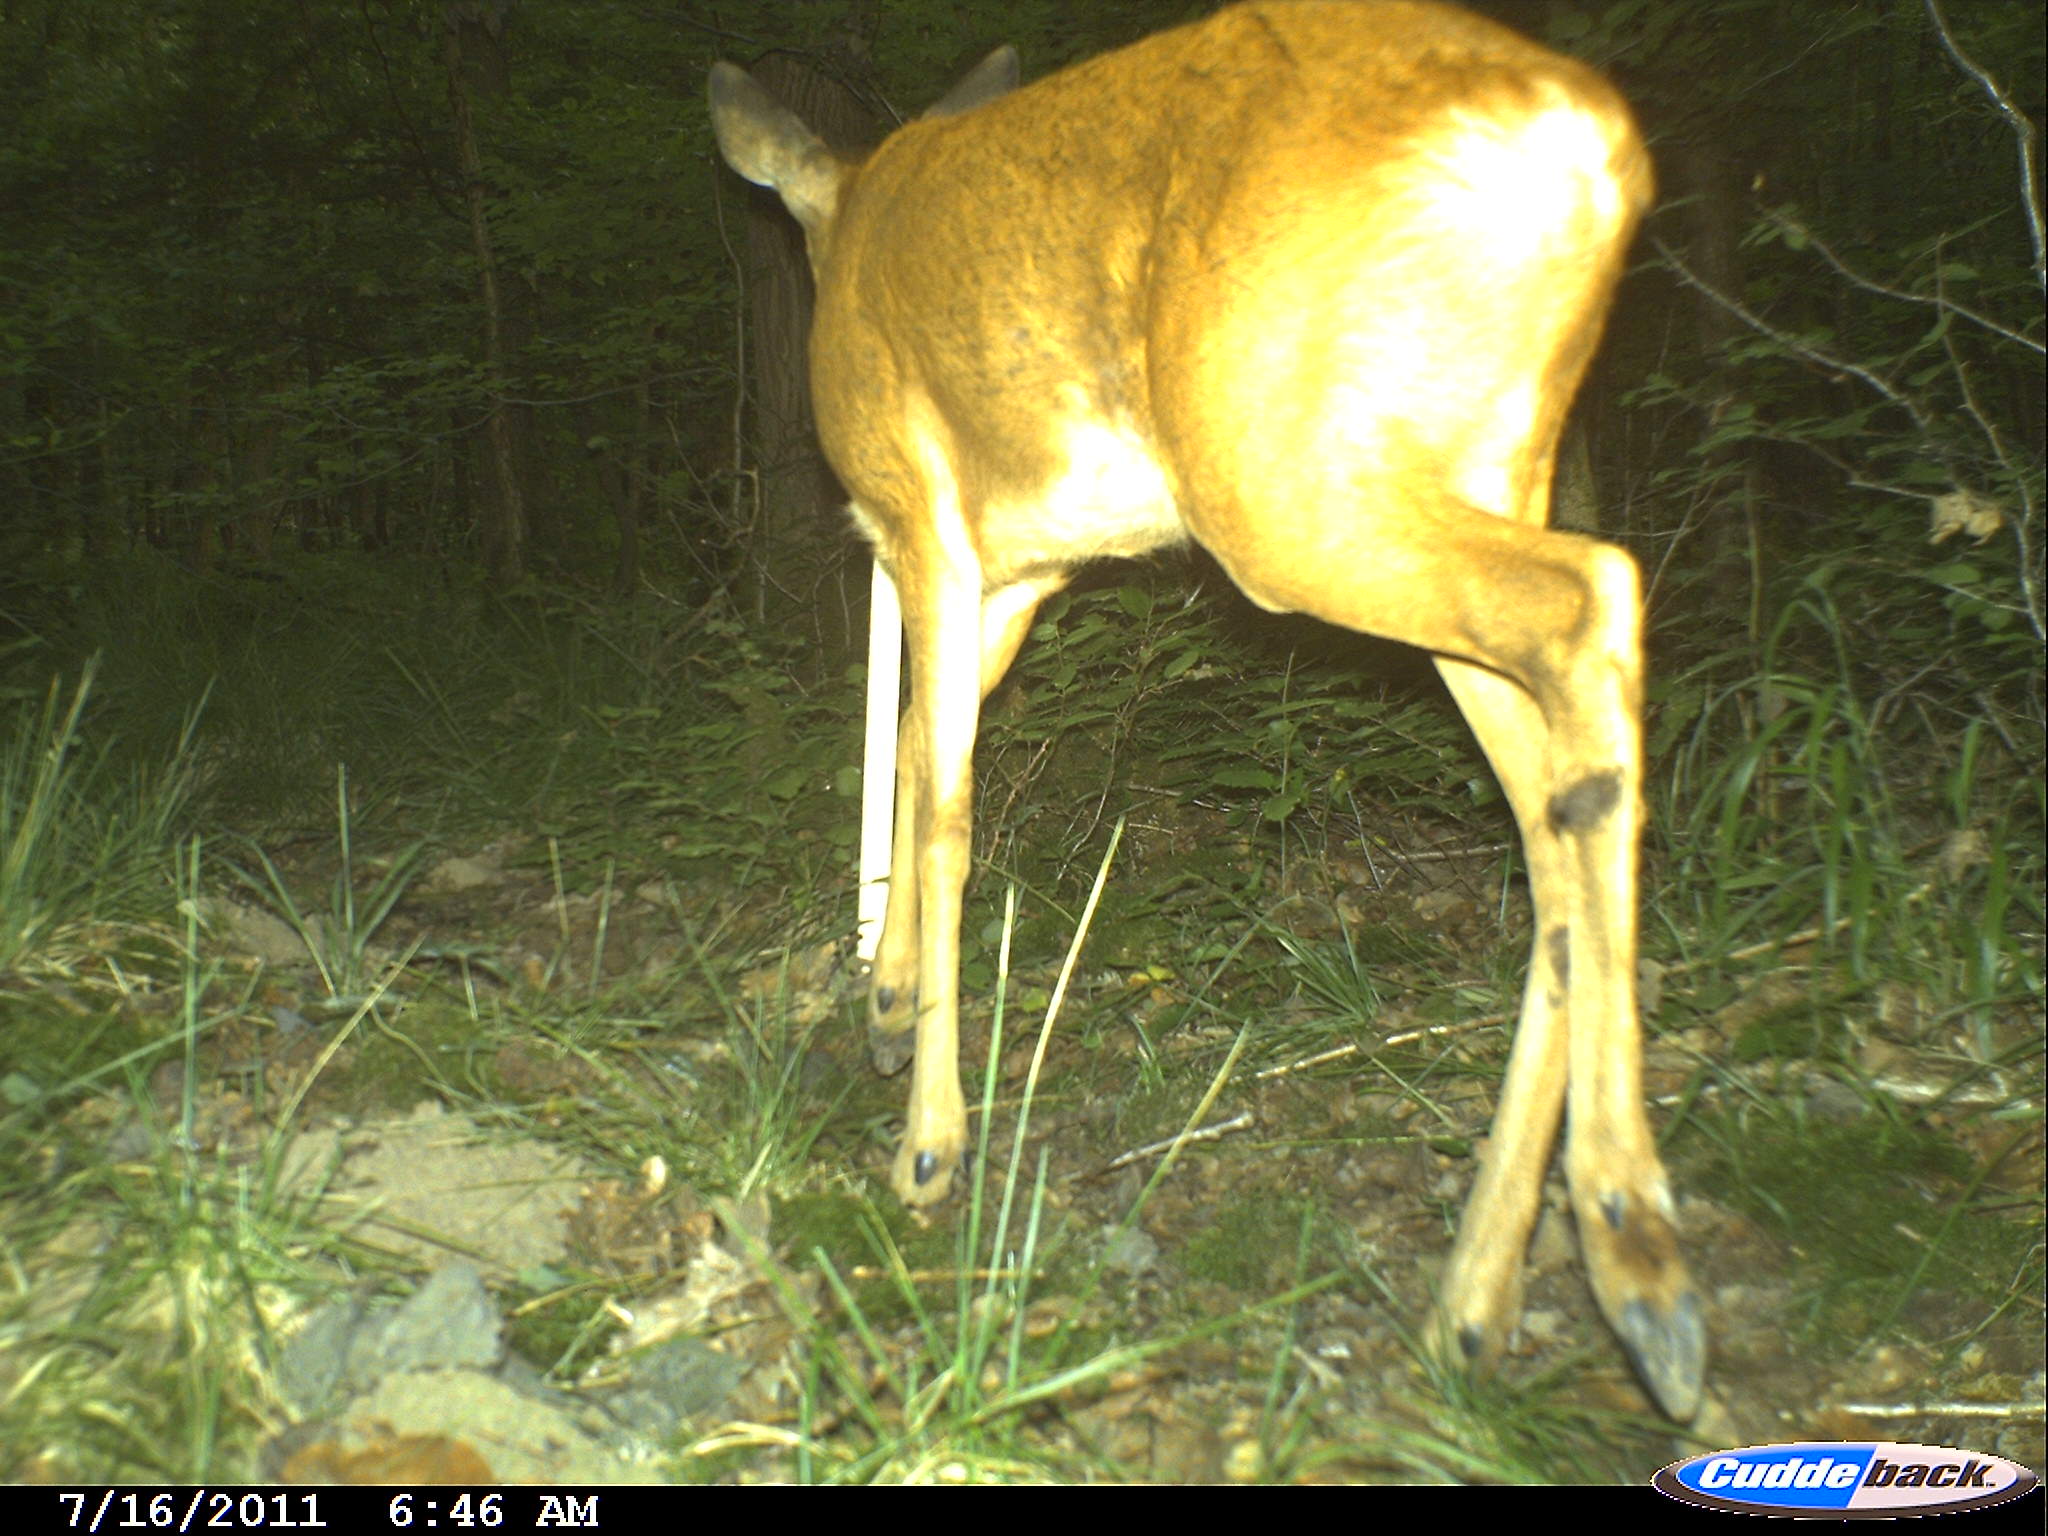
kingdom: Animalia
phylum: Chordata
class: Mammalia
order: Artiodactyla
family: Cervidae
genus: Capreolus
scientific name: Capreolus capreolus
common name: Western roe deer
